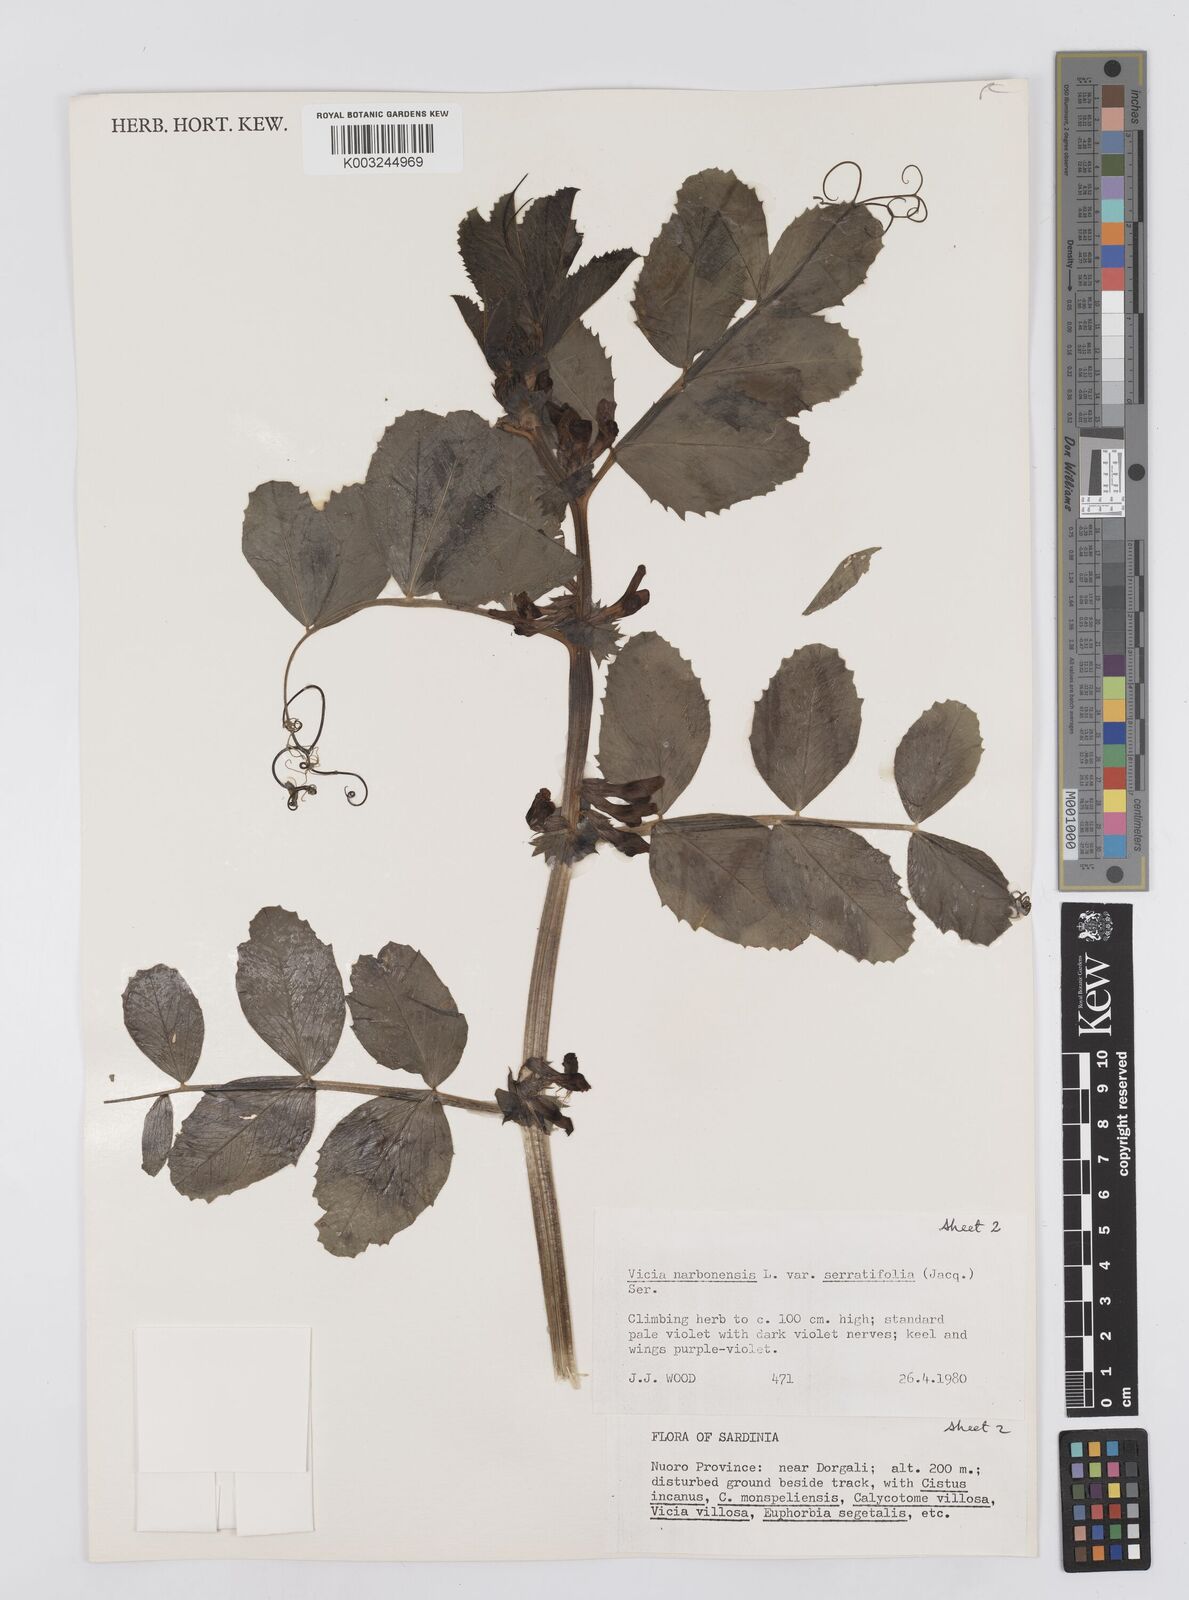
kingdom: Plantae
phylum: Tracheophyta
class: Magnoliopsida
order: Fabales
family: Fabaceae
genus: Vicia
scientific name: Vicia serratifolia
